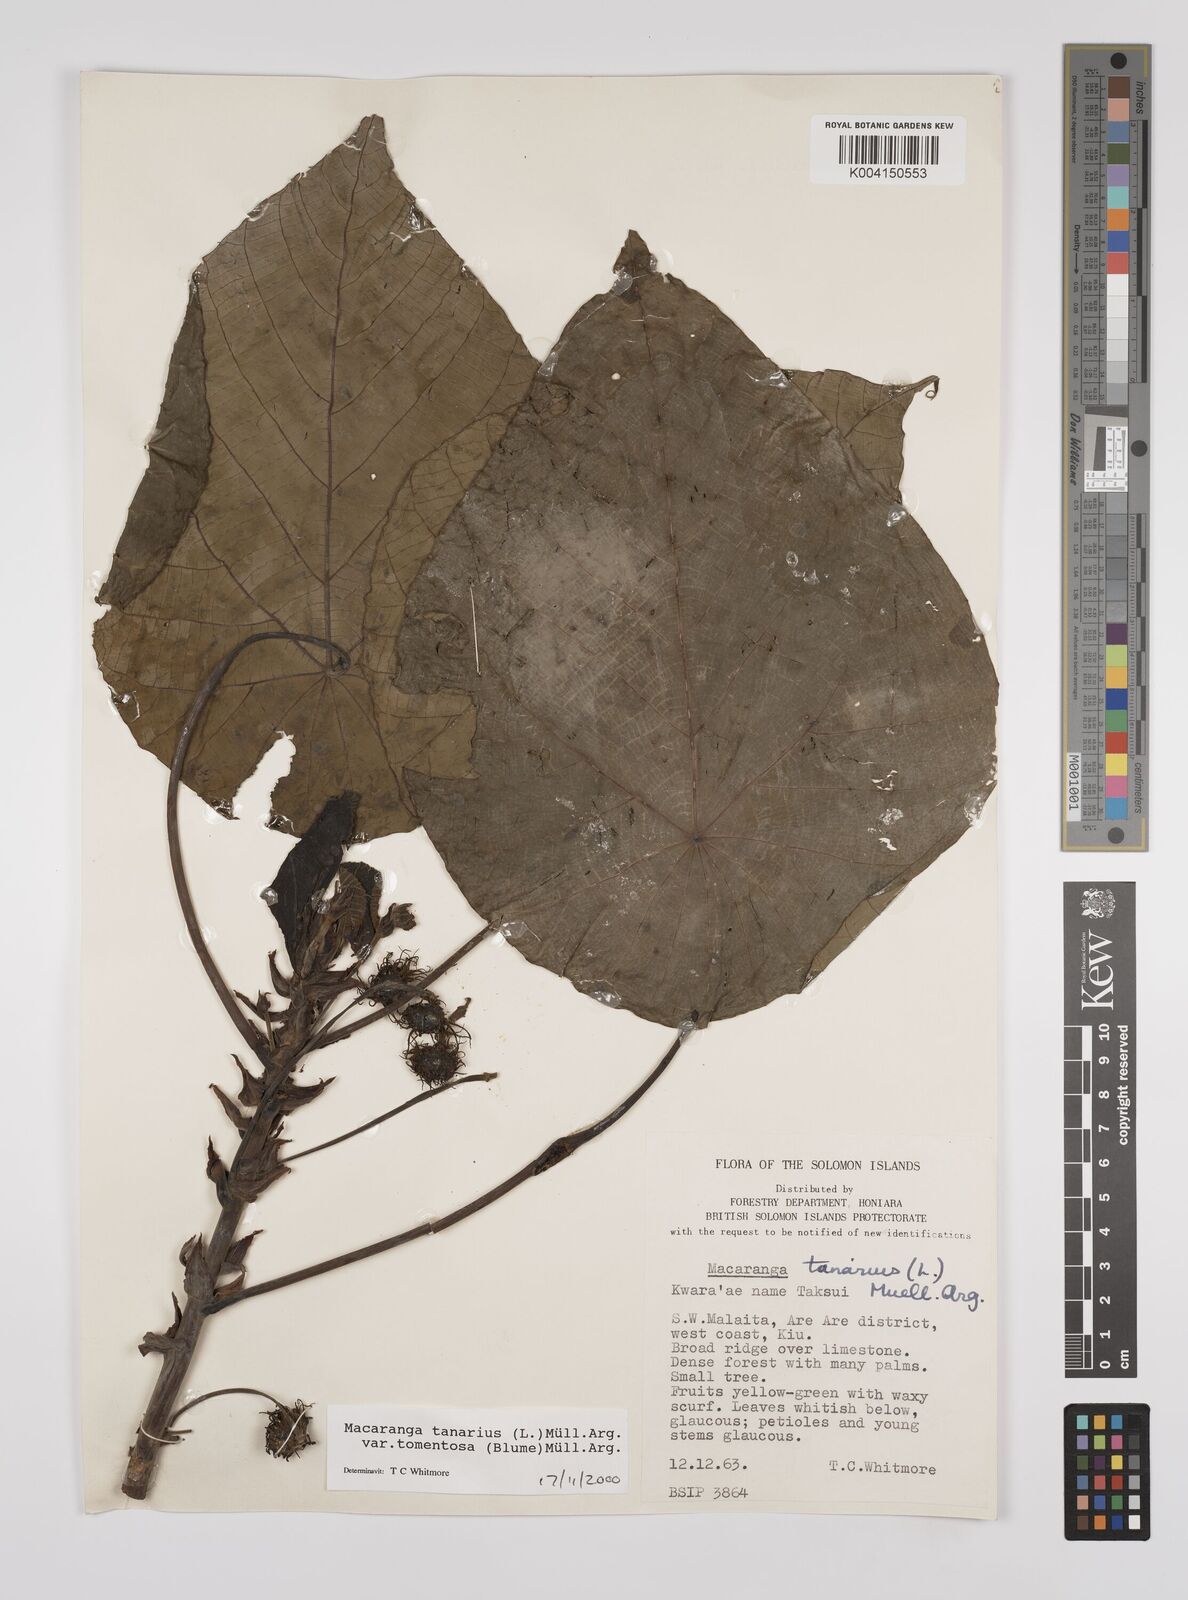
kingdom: Plantae
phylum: Tracheophyta
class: Magnoliopsida
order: Malpighiales
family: Euphorbiaceae
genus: Macaranga
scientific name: Macaranga tanarius
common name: Parasol leaf tree
